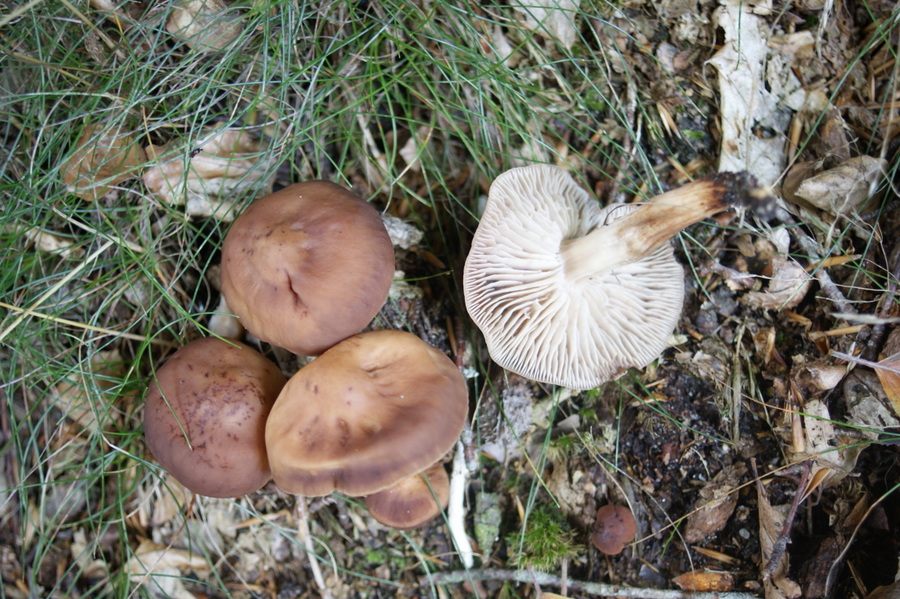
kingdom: Fungi
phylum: Basidiomycota
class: Agaricomycetes
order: Agaricales
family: Omphalotaceae
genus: Gymnopus
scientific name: Gymnopus fusipes
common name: tenstokket fladhat
